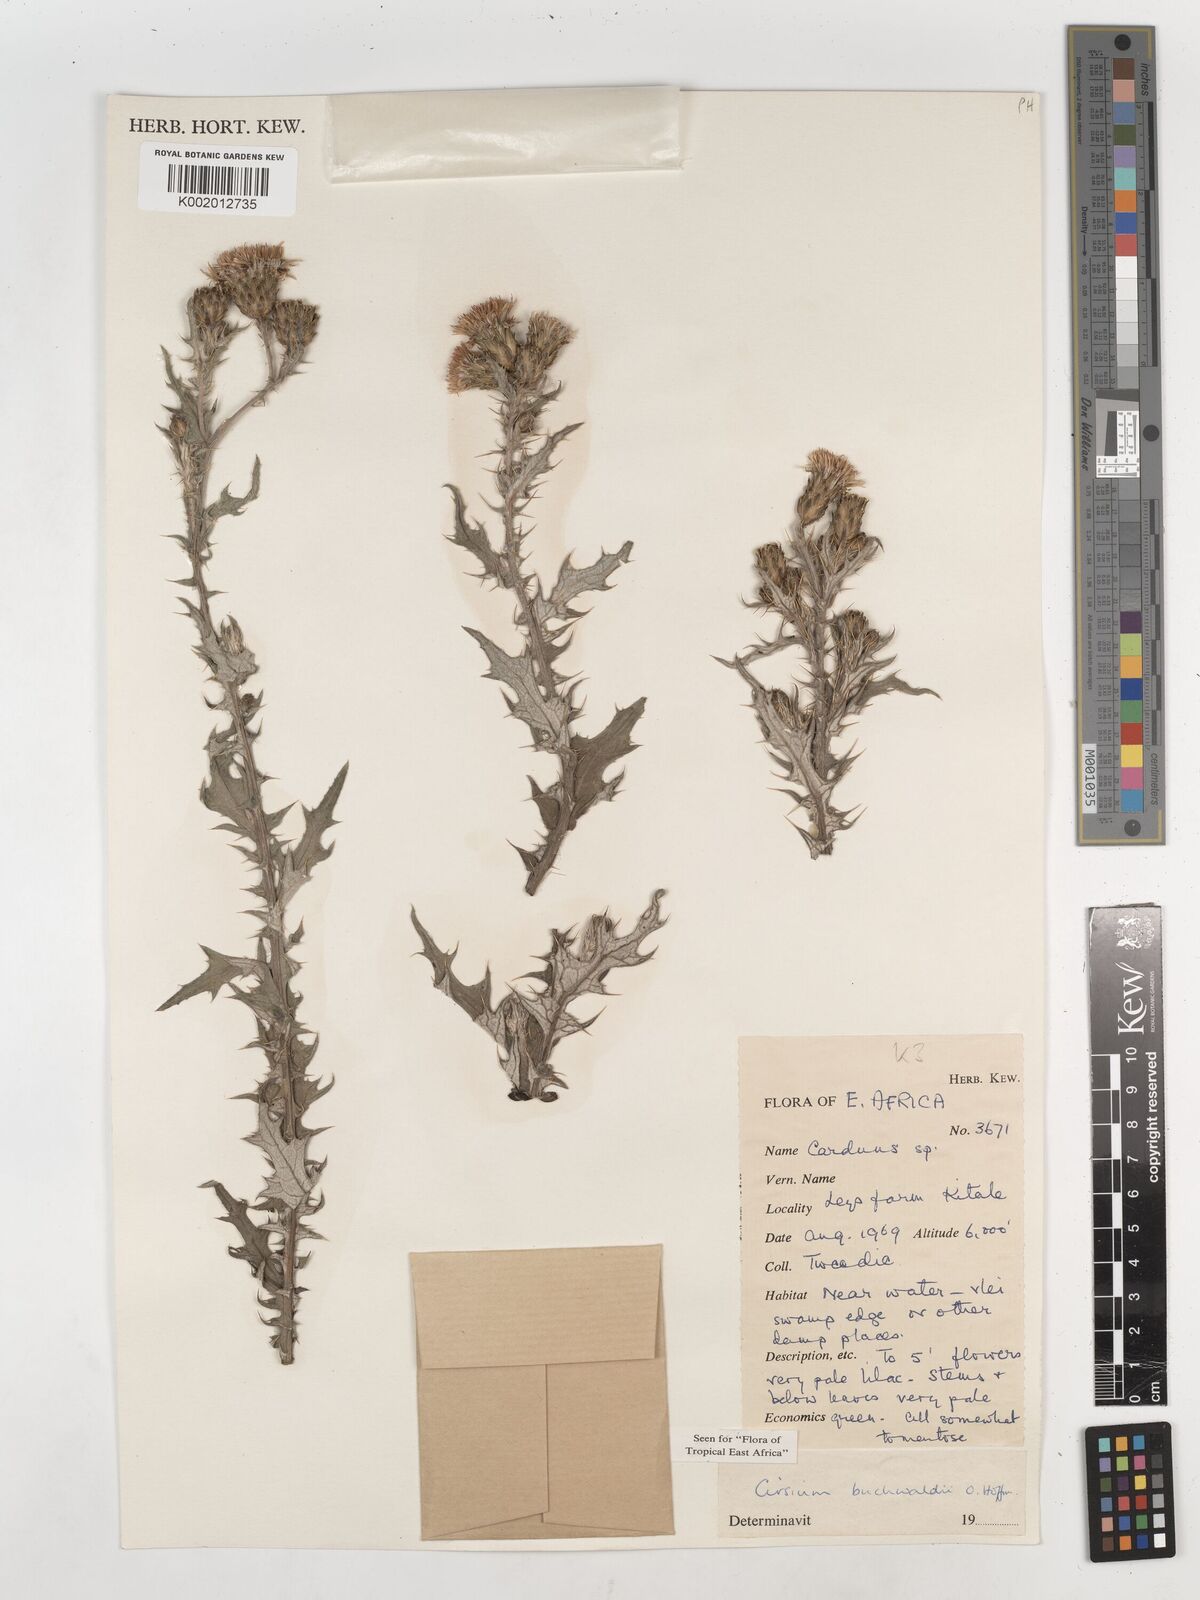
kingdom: Plantae
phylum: Tracheophyta
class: Magnoliopsida
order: Asterales
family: Asteraceae
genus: Cirsium
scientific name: Cirsium buchwaldii
